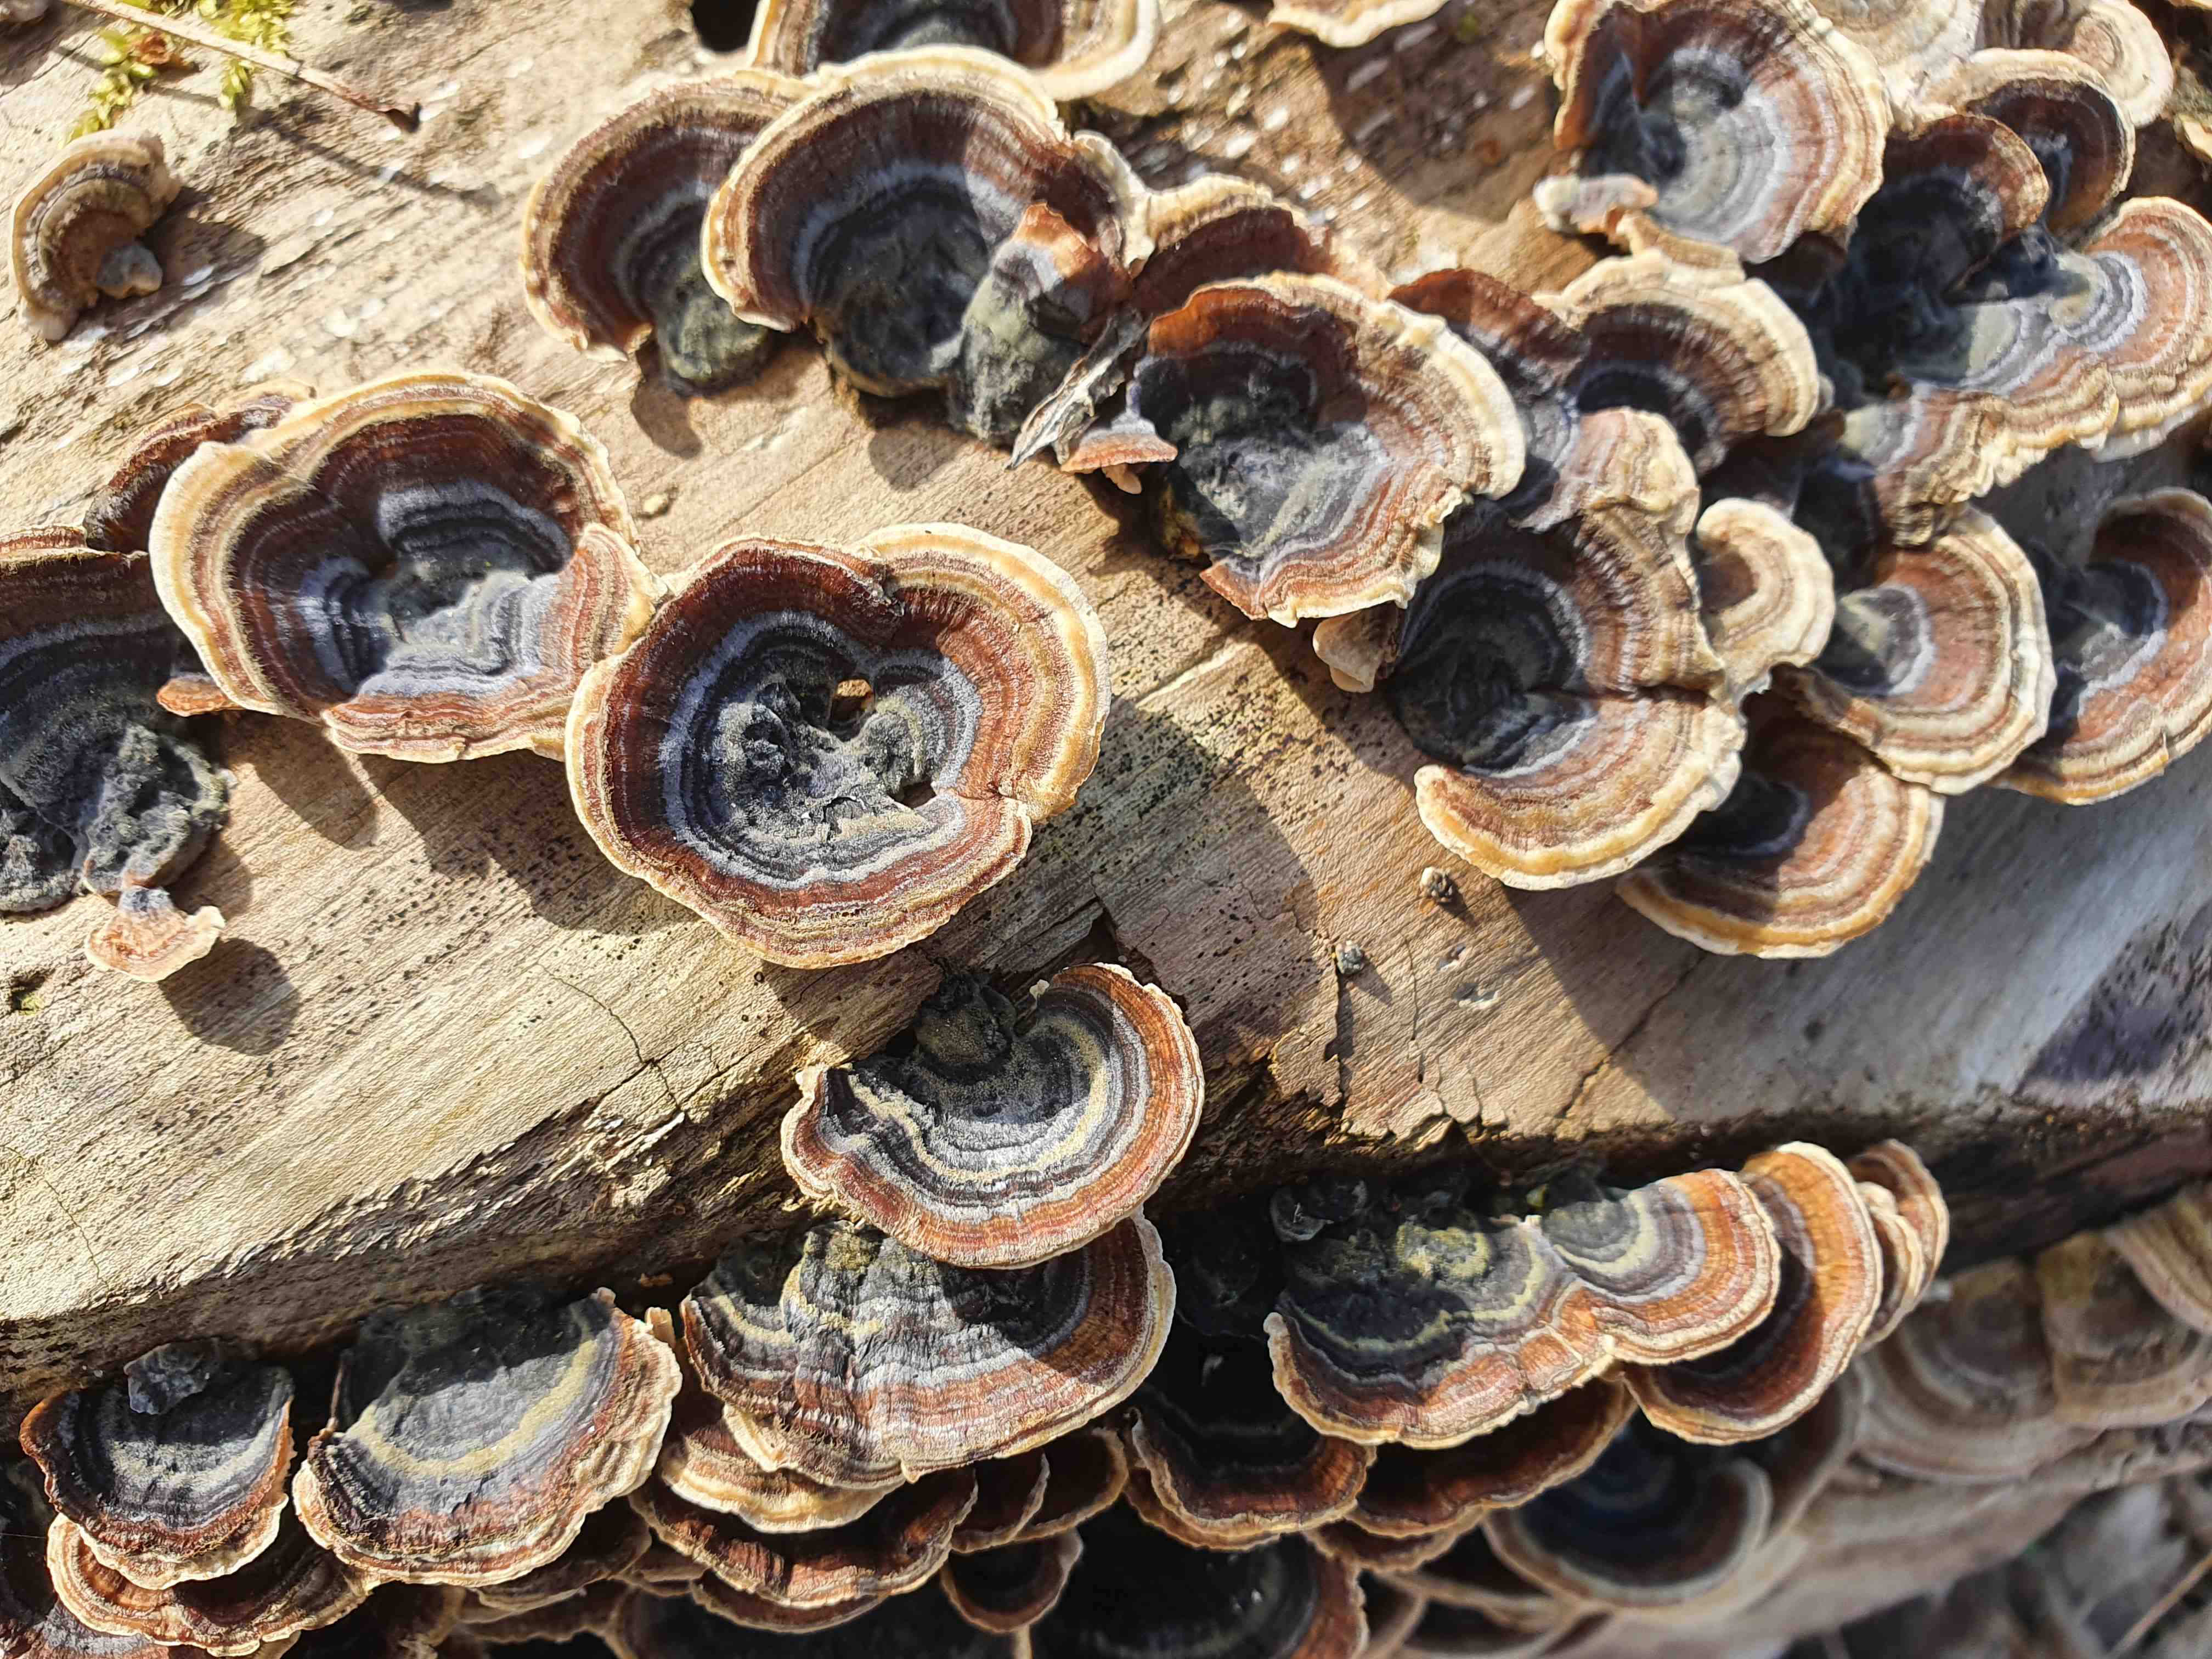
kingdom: Fungi
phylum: Basidiomycota
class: Agaricomycetes
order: Polyporales
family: Polyporaceae
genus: Trametes
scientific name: Trametes versicolor
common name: broget læderporesvamp
